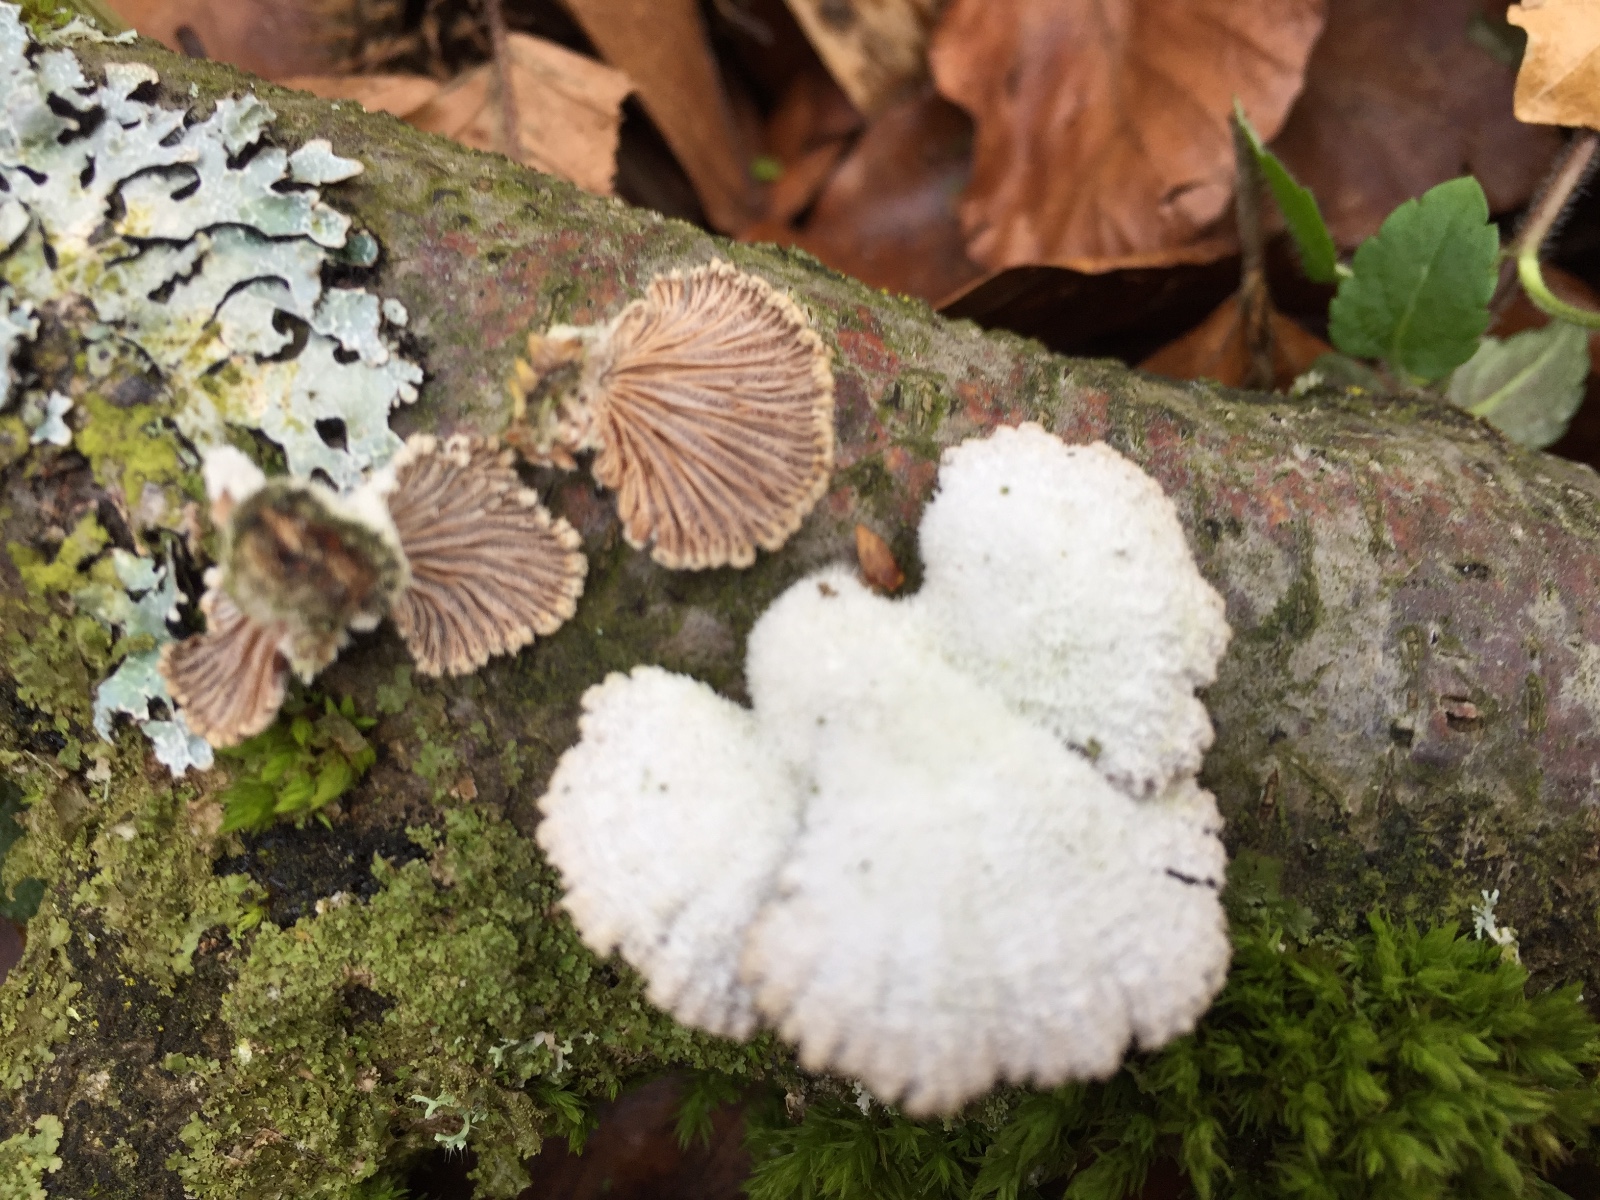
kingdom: Fungi
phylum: Basidiomycota
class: Agaricomycetes
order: Agaricales
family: Schizophyllaceae
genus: Schizophyllum
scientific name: Schizophyllum commune
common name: kløvblad
